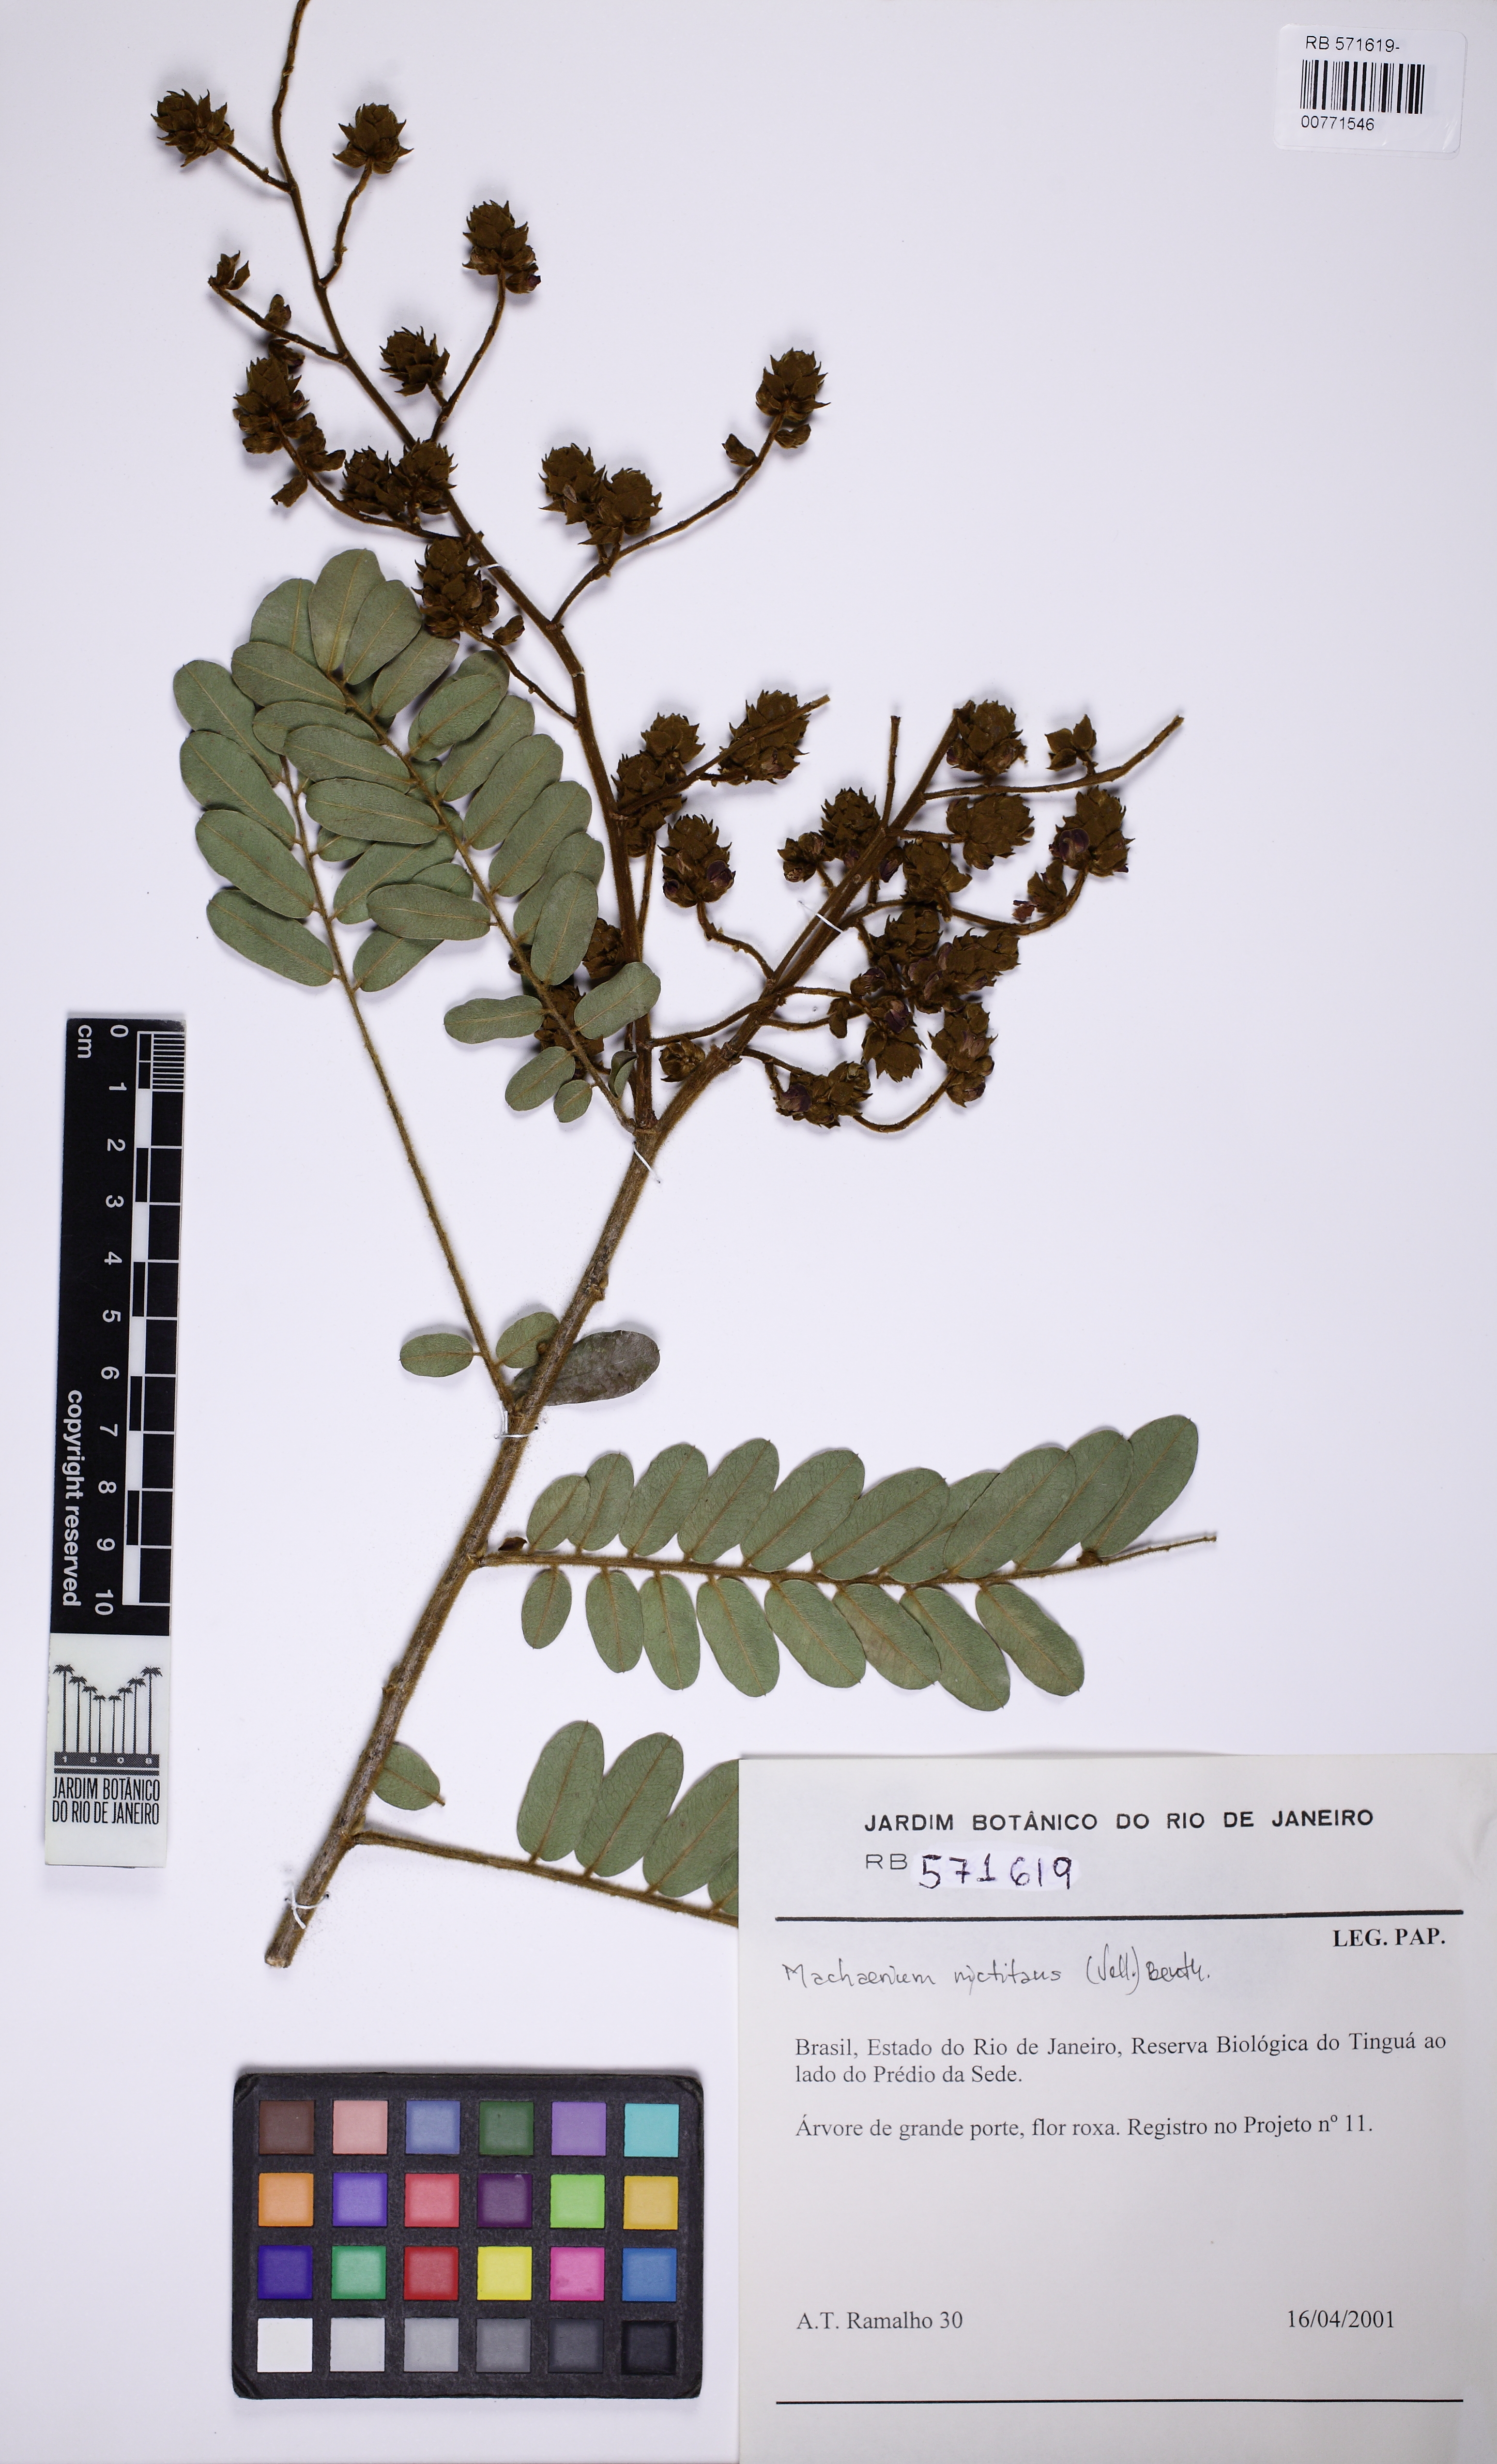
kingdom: Plantae
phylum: Tracheophyta
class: Magnoliopsida
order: Fabales
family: Fabaceae
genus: Machaerium
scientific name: Machaerium nyctitans
